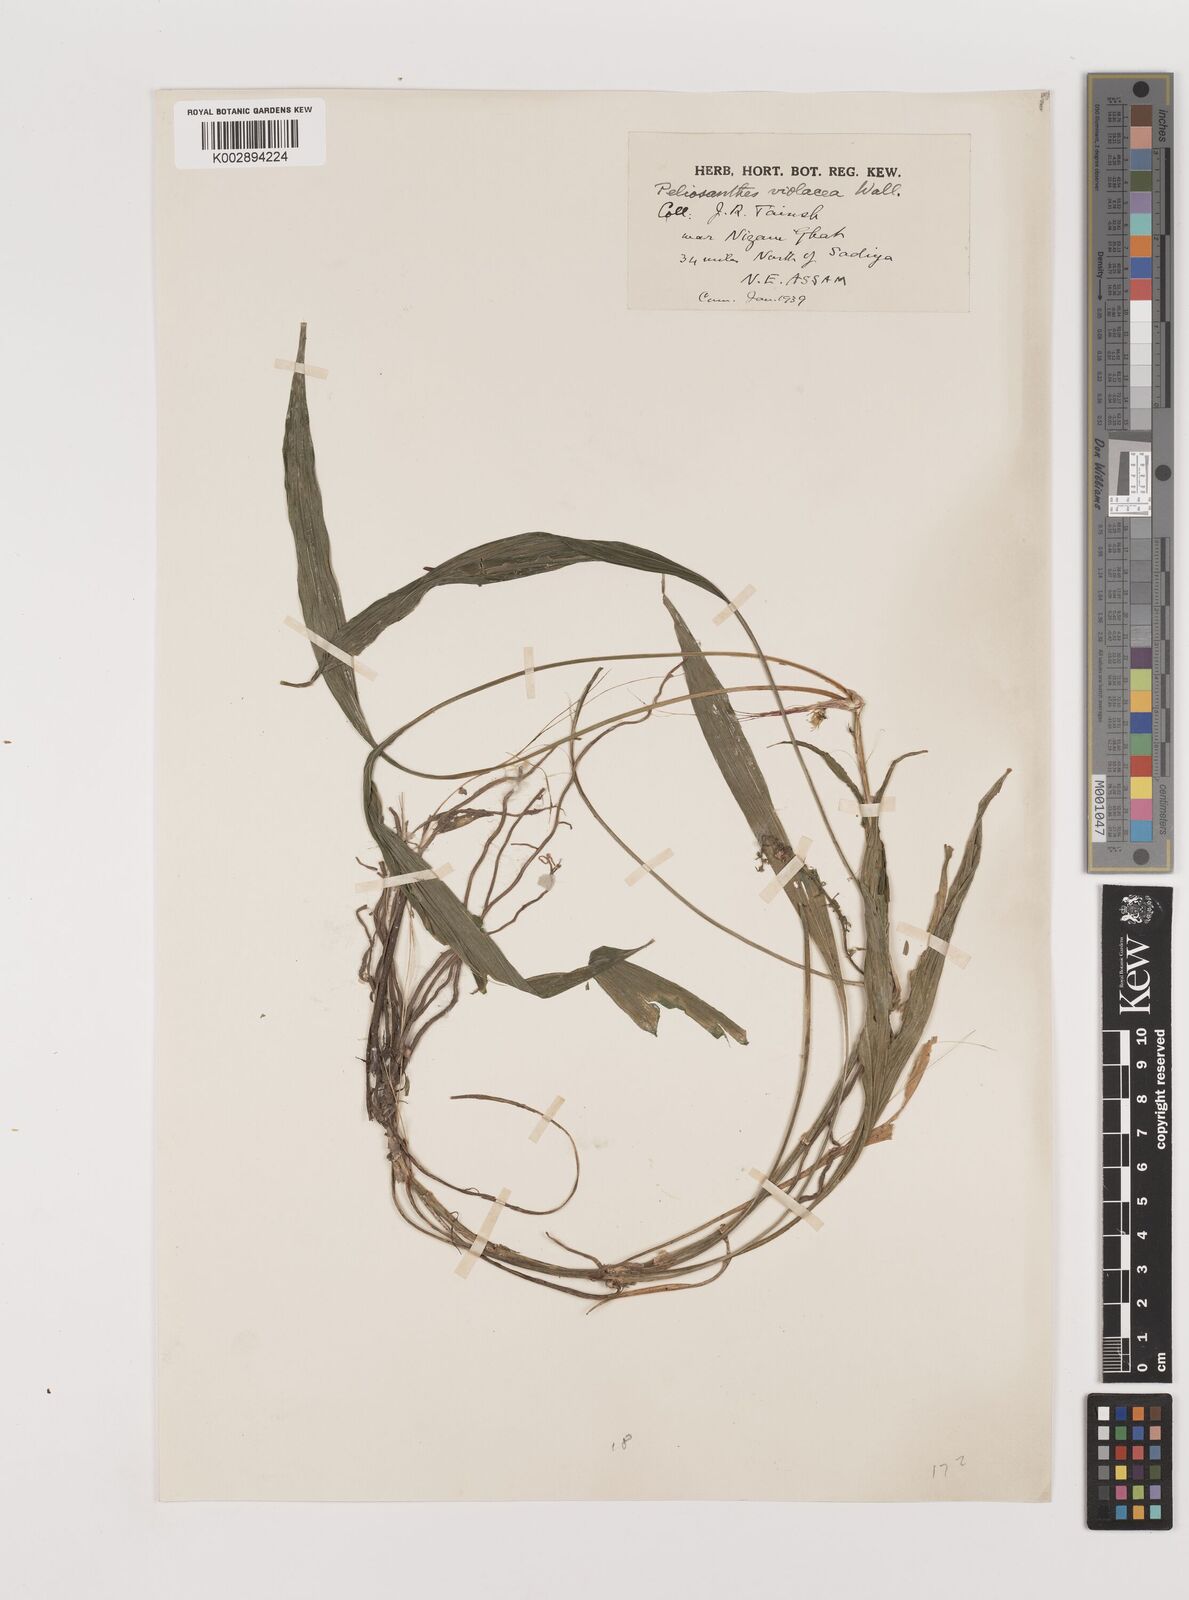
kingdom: Plantae
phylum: Tracheophyta
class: Liliopsida
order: Asparagales
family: Asparagaceae
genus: Peliosanthes
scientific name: Peliosanthes teta
